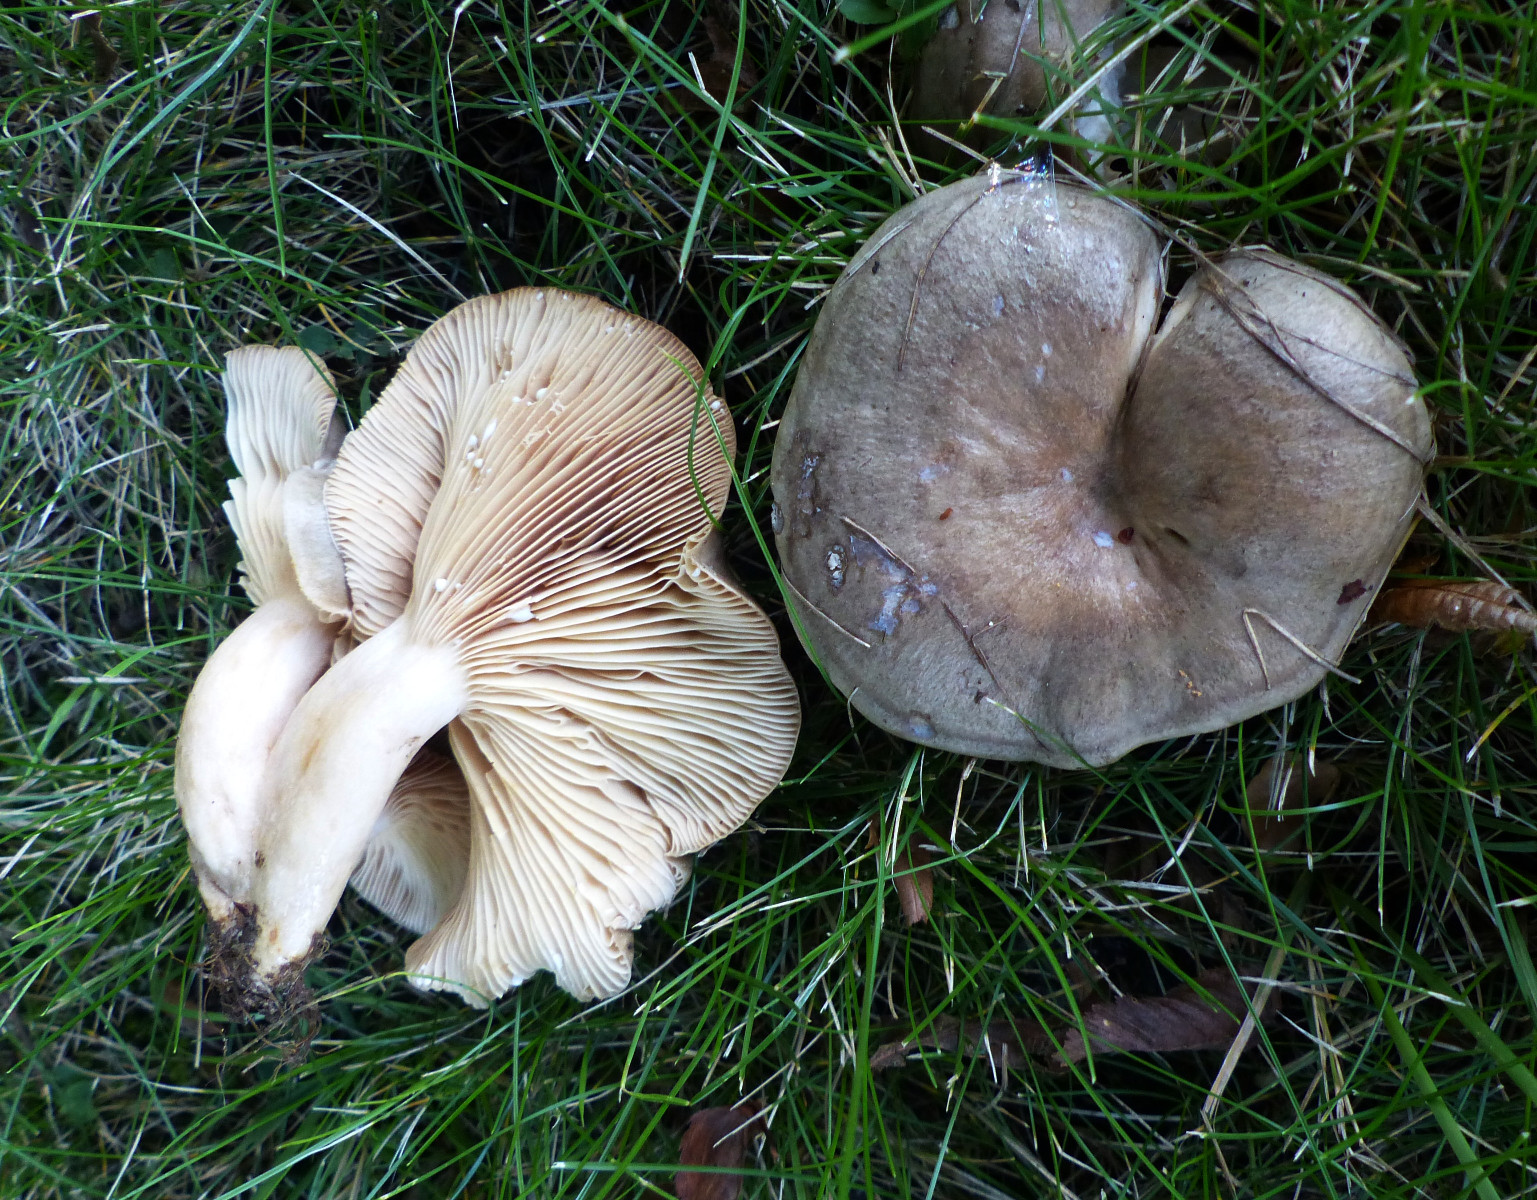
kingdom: Fungi
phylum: Basidiomycota
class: Agaricomycetes
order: Russulales
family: Russulaceae
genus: Lactarius
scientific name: Lactarius circellatus
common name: avnbøg-mælkehat
